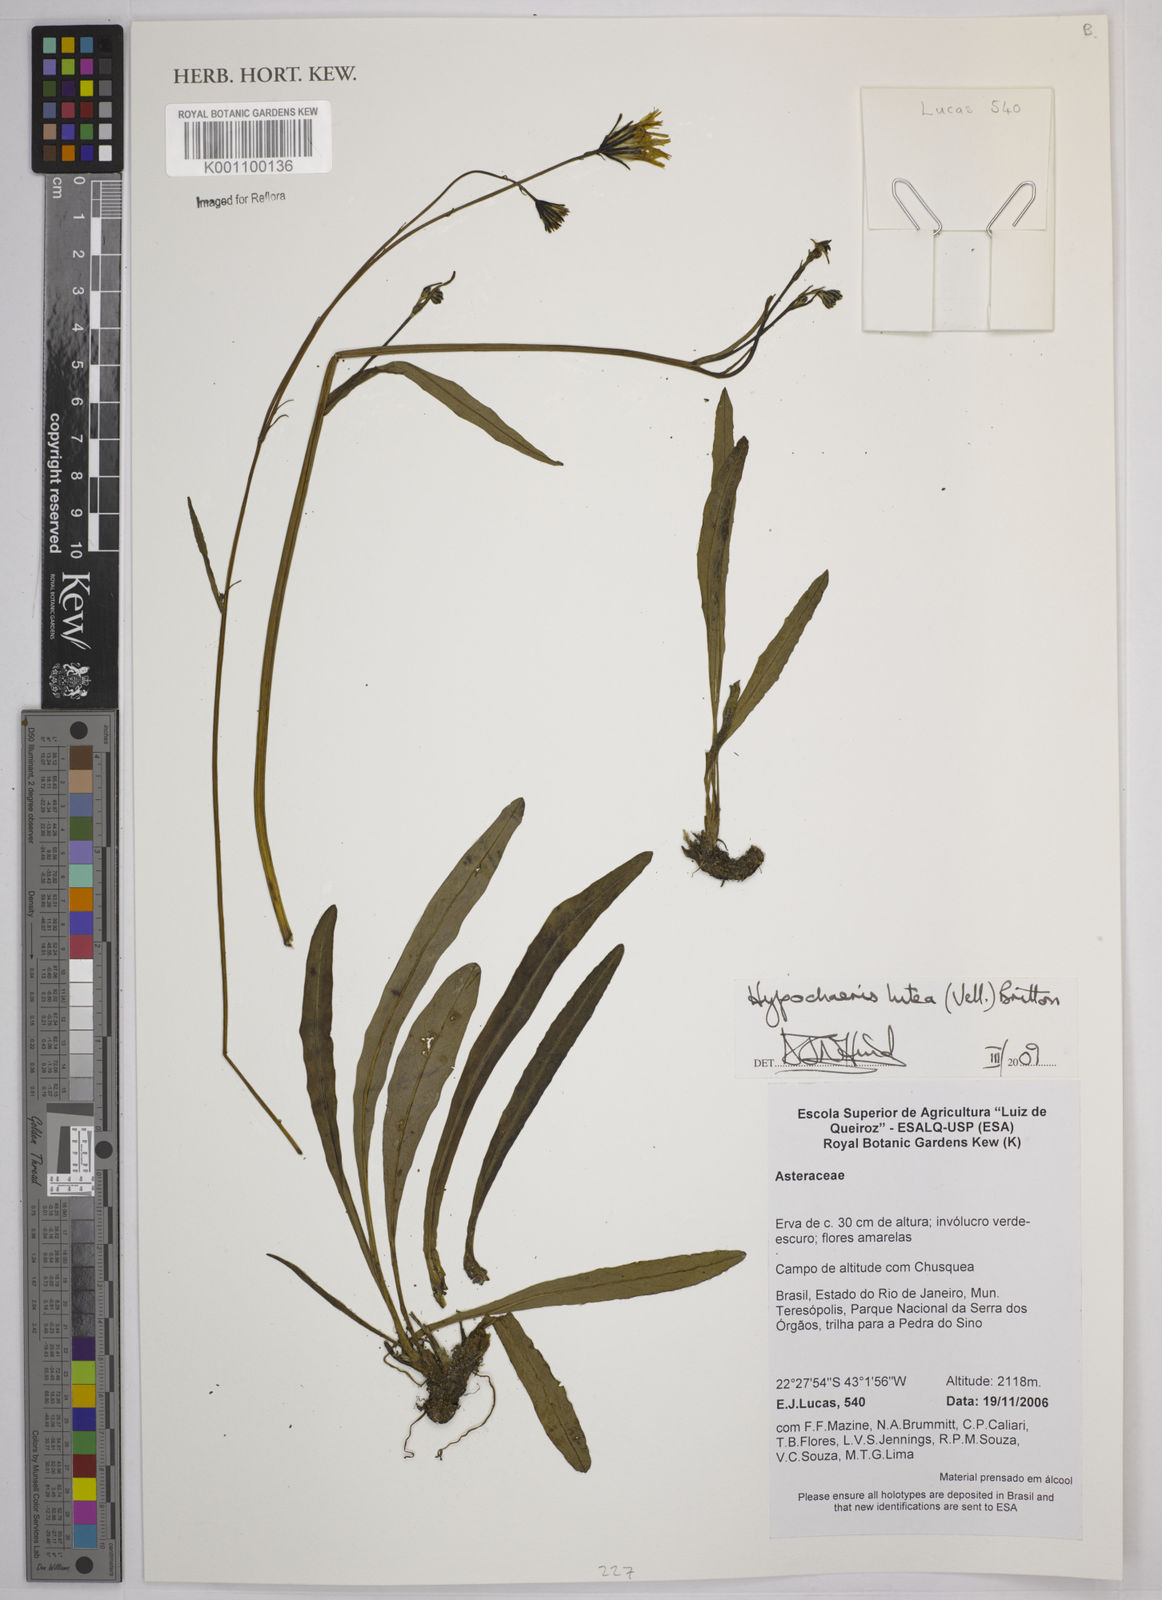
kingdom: Plantae
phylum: Tracheophyta
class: Magnoliopsida
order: Asterales
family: Asteraceae
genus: Hypochaeris
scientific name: Hypochaeris
